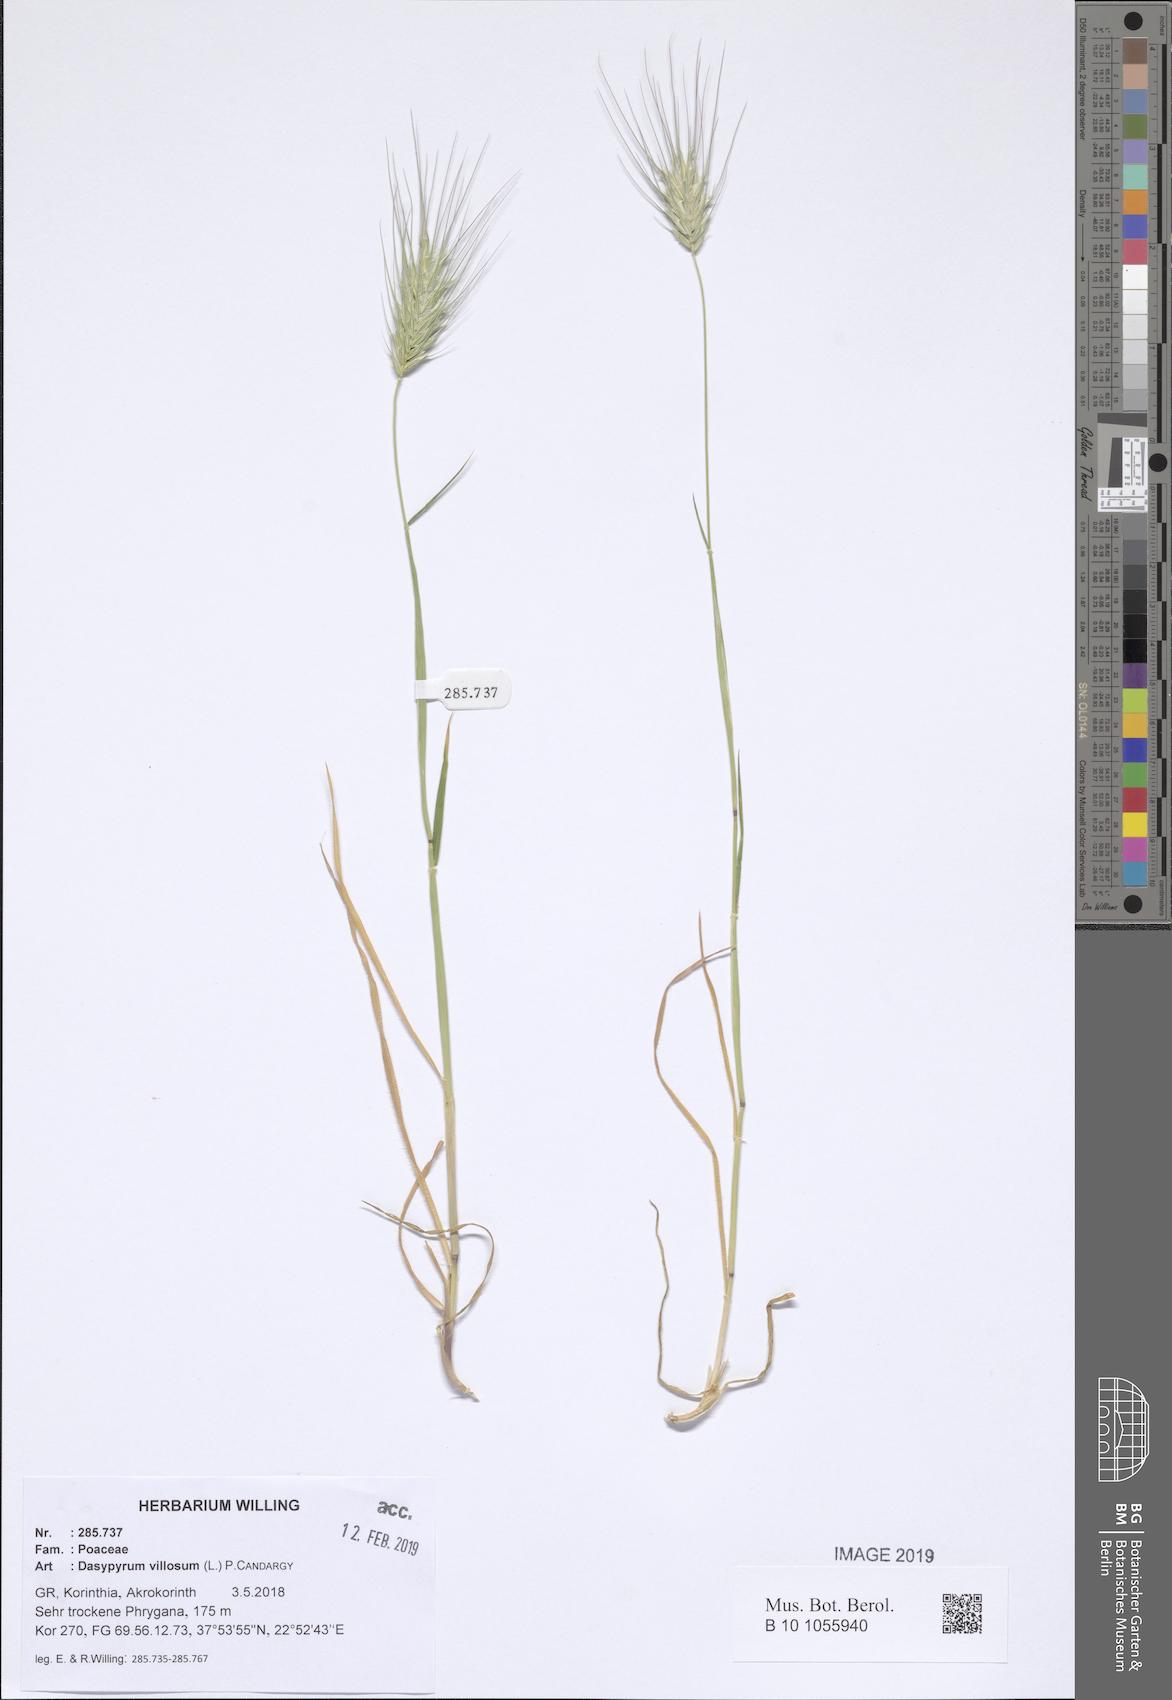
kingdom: Plantae
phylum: Tracheophyta
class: Liliopsida
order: Poales
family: Poaceae
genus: Dasypyrum
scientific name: Dasypyrum villosum
